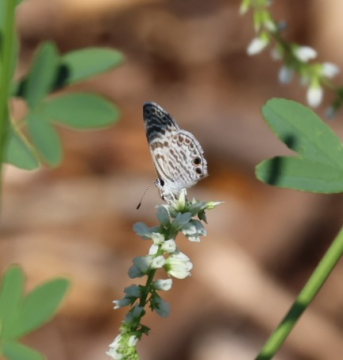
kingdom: Animalia
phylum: Arthropoda
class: Insecta
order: Lepidoptera
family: Lycaenidae
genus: Leptotes
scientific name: Leptotes marina
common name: Marine Blue
